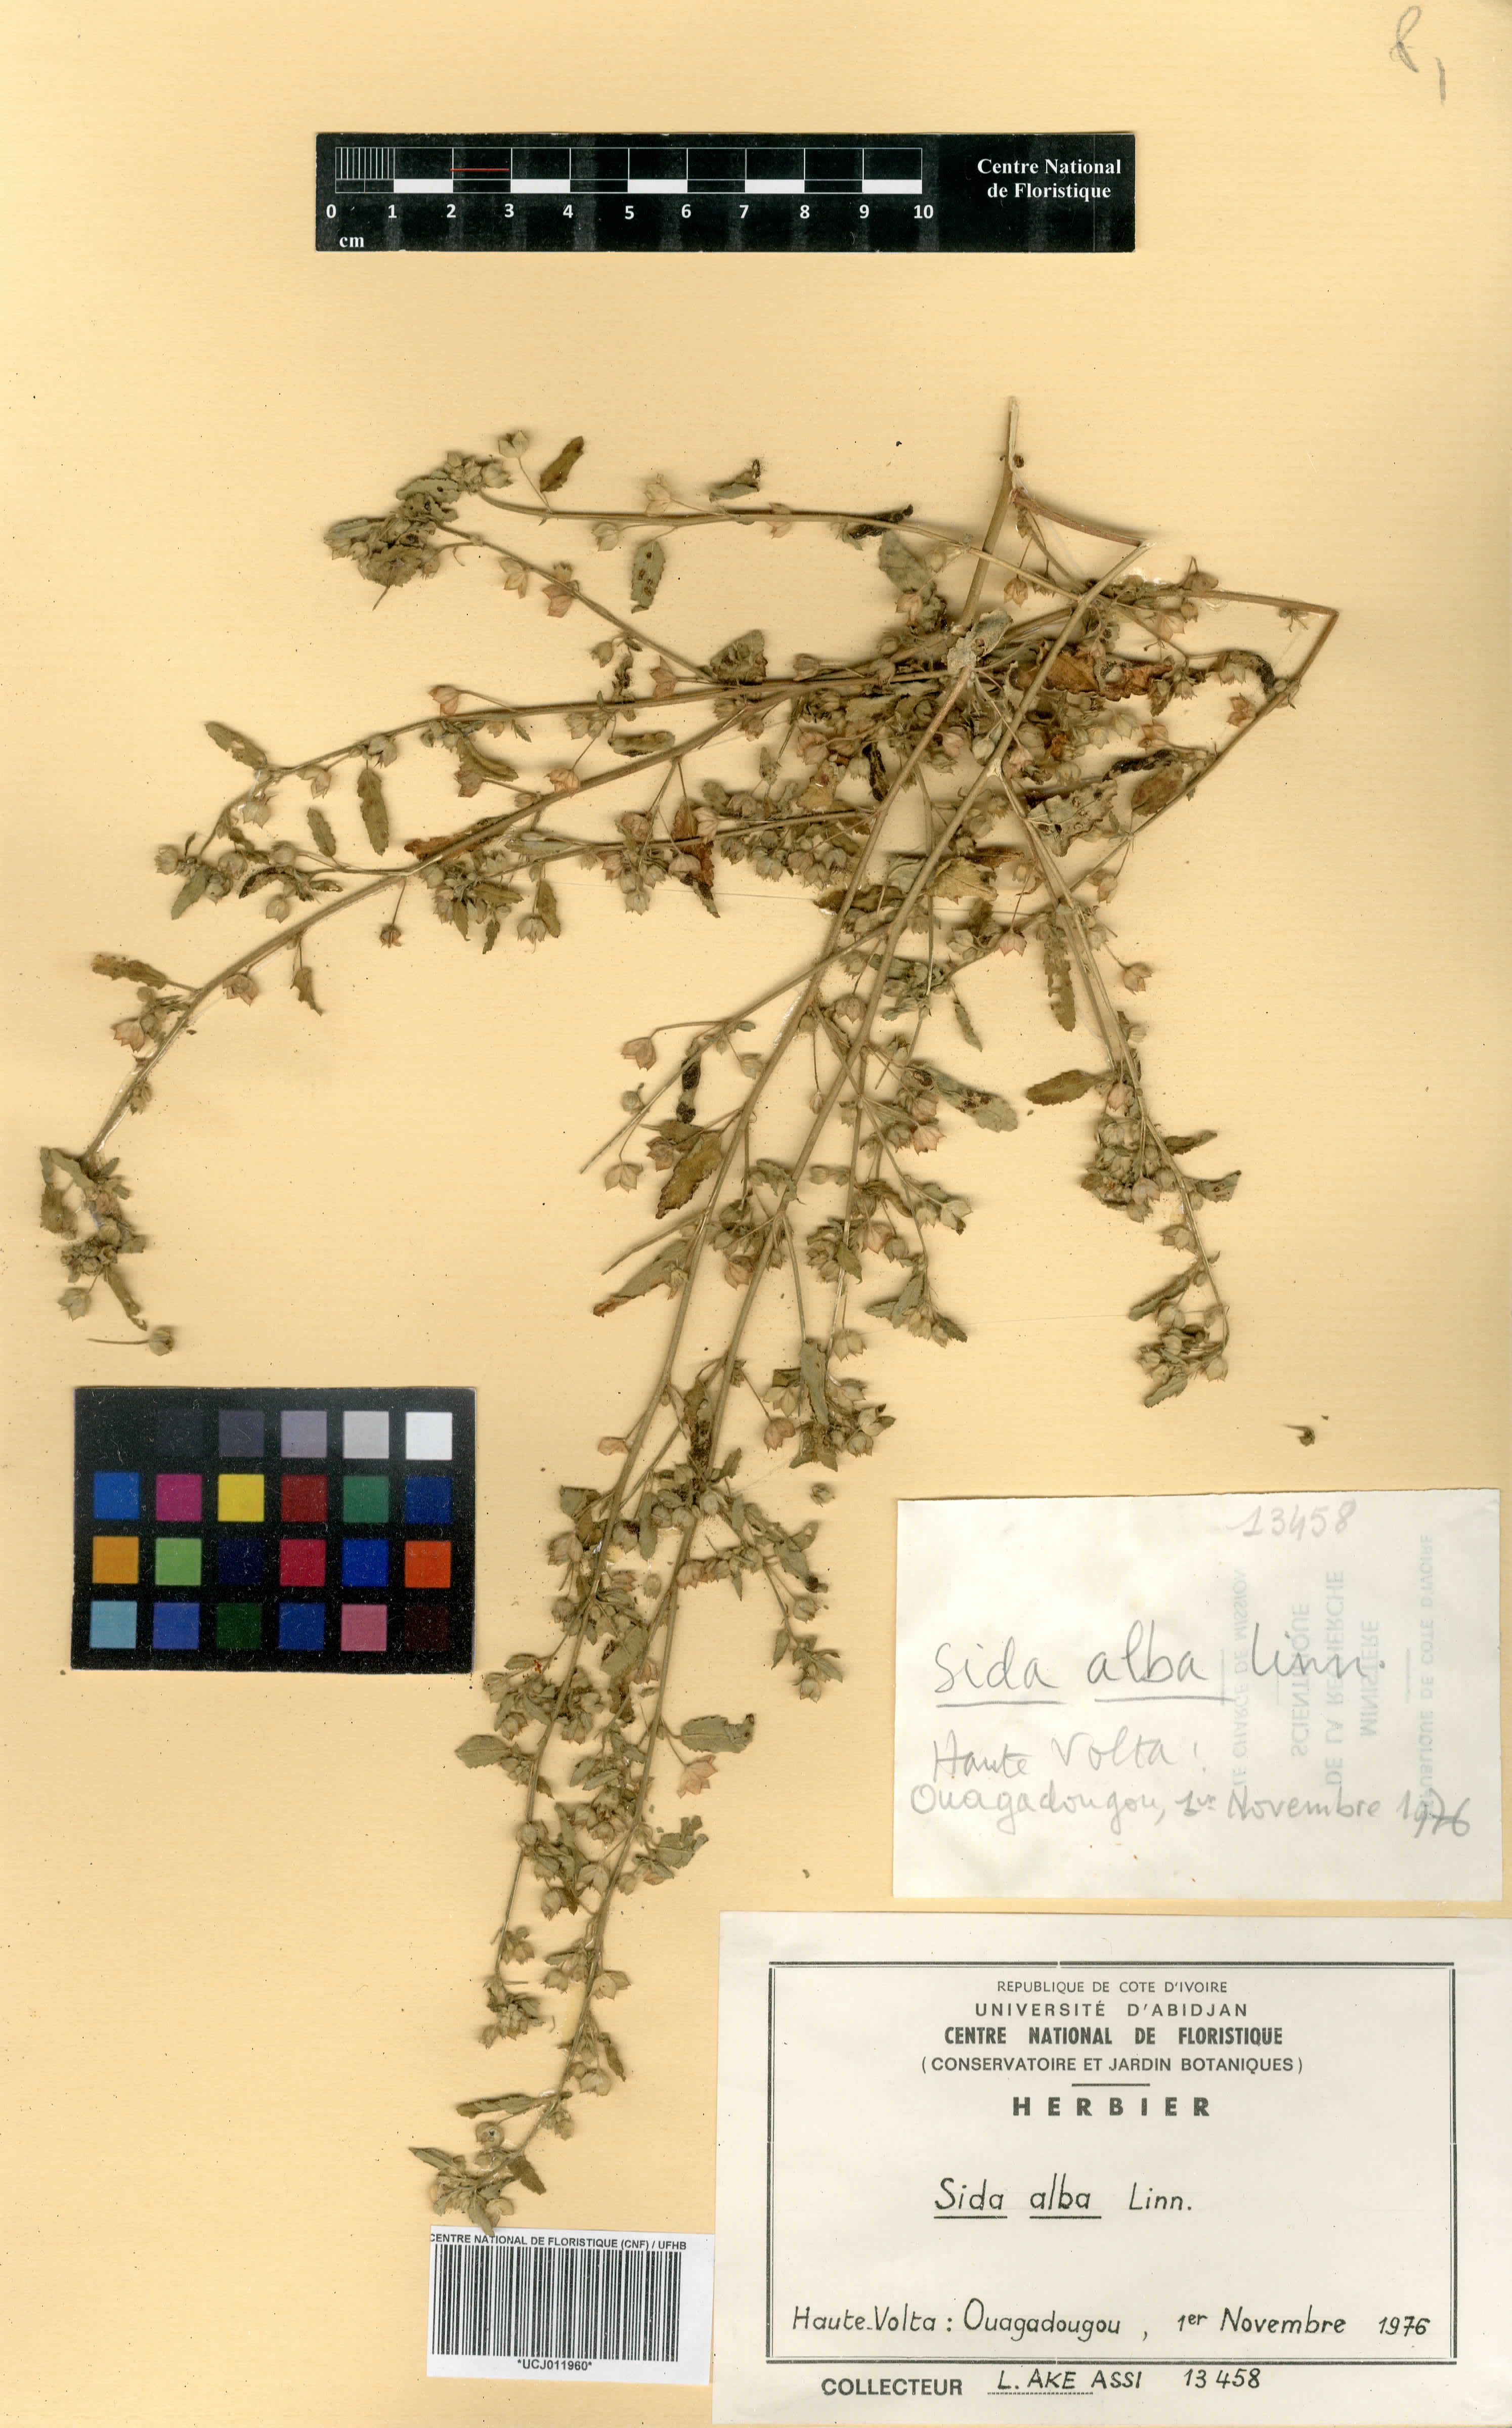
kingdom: Plantae
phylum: Tracheophyta
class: Magnoliopsida
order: Malvales
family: Malvaceae
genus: Sida
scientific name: Sida alba
